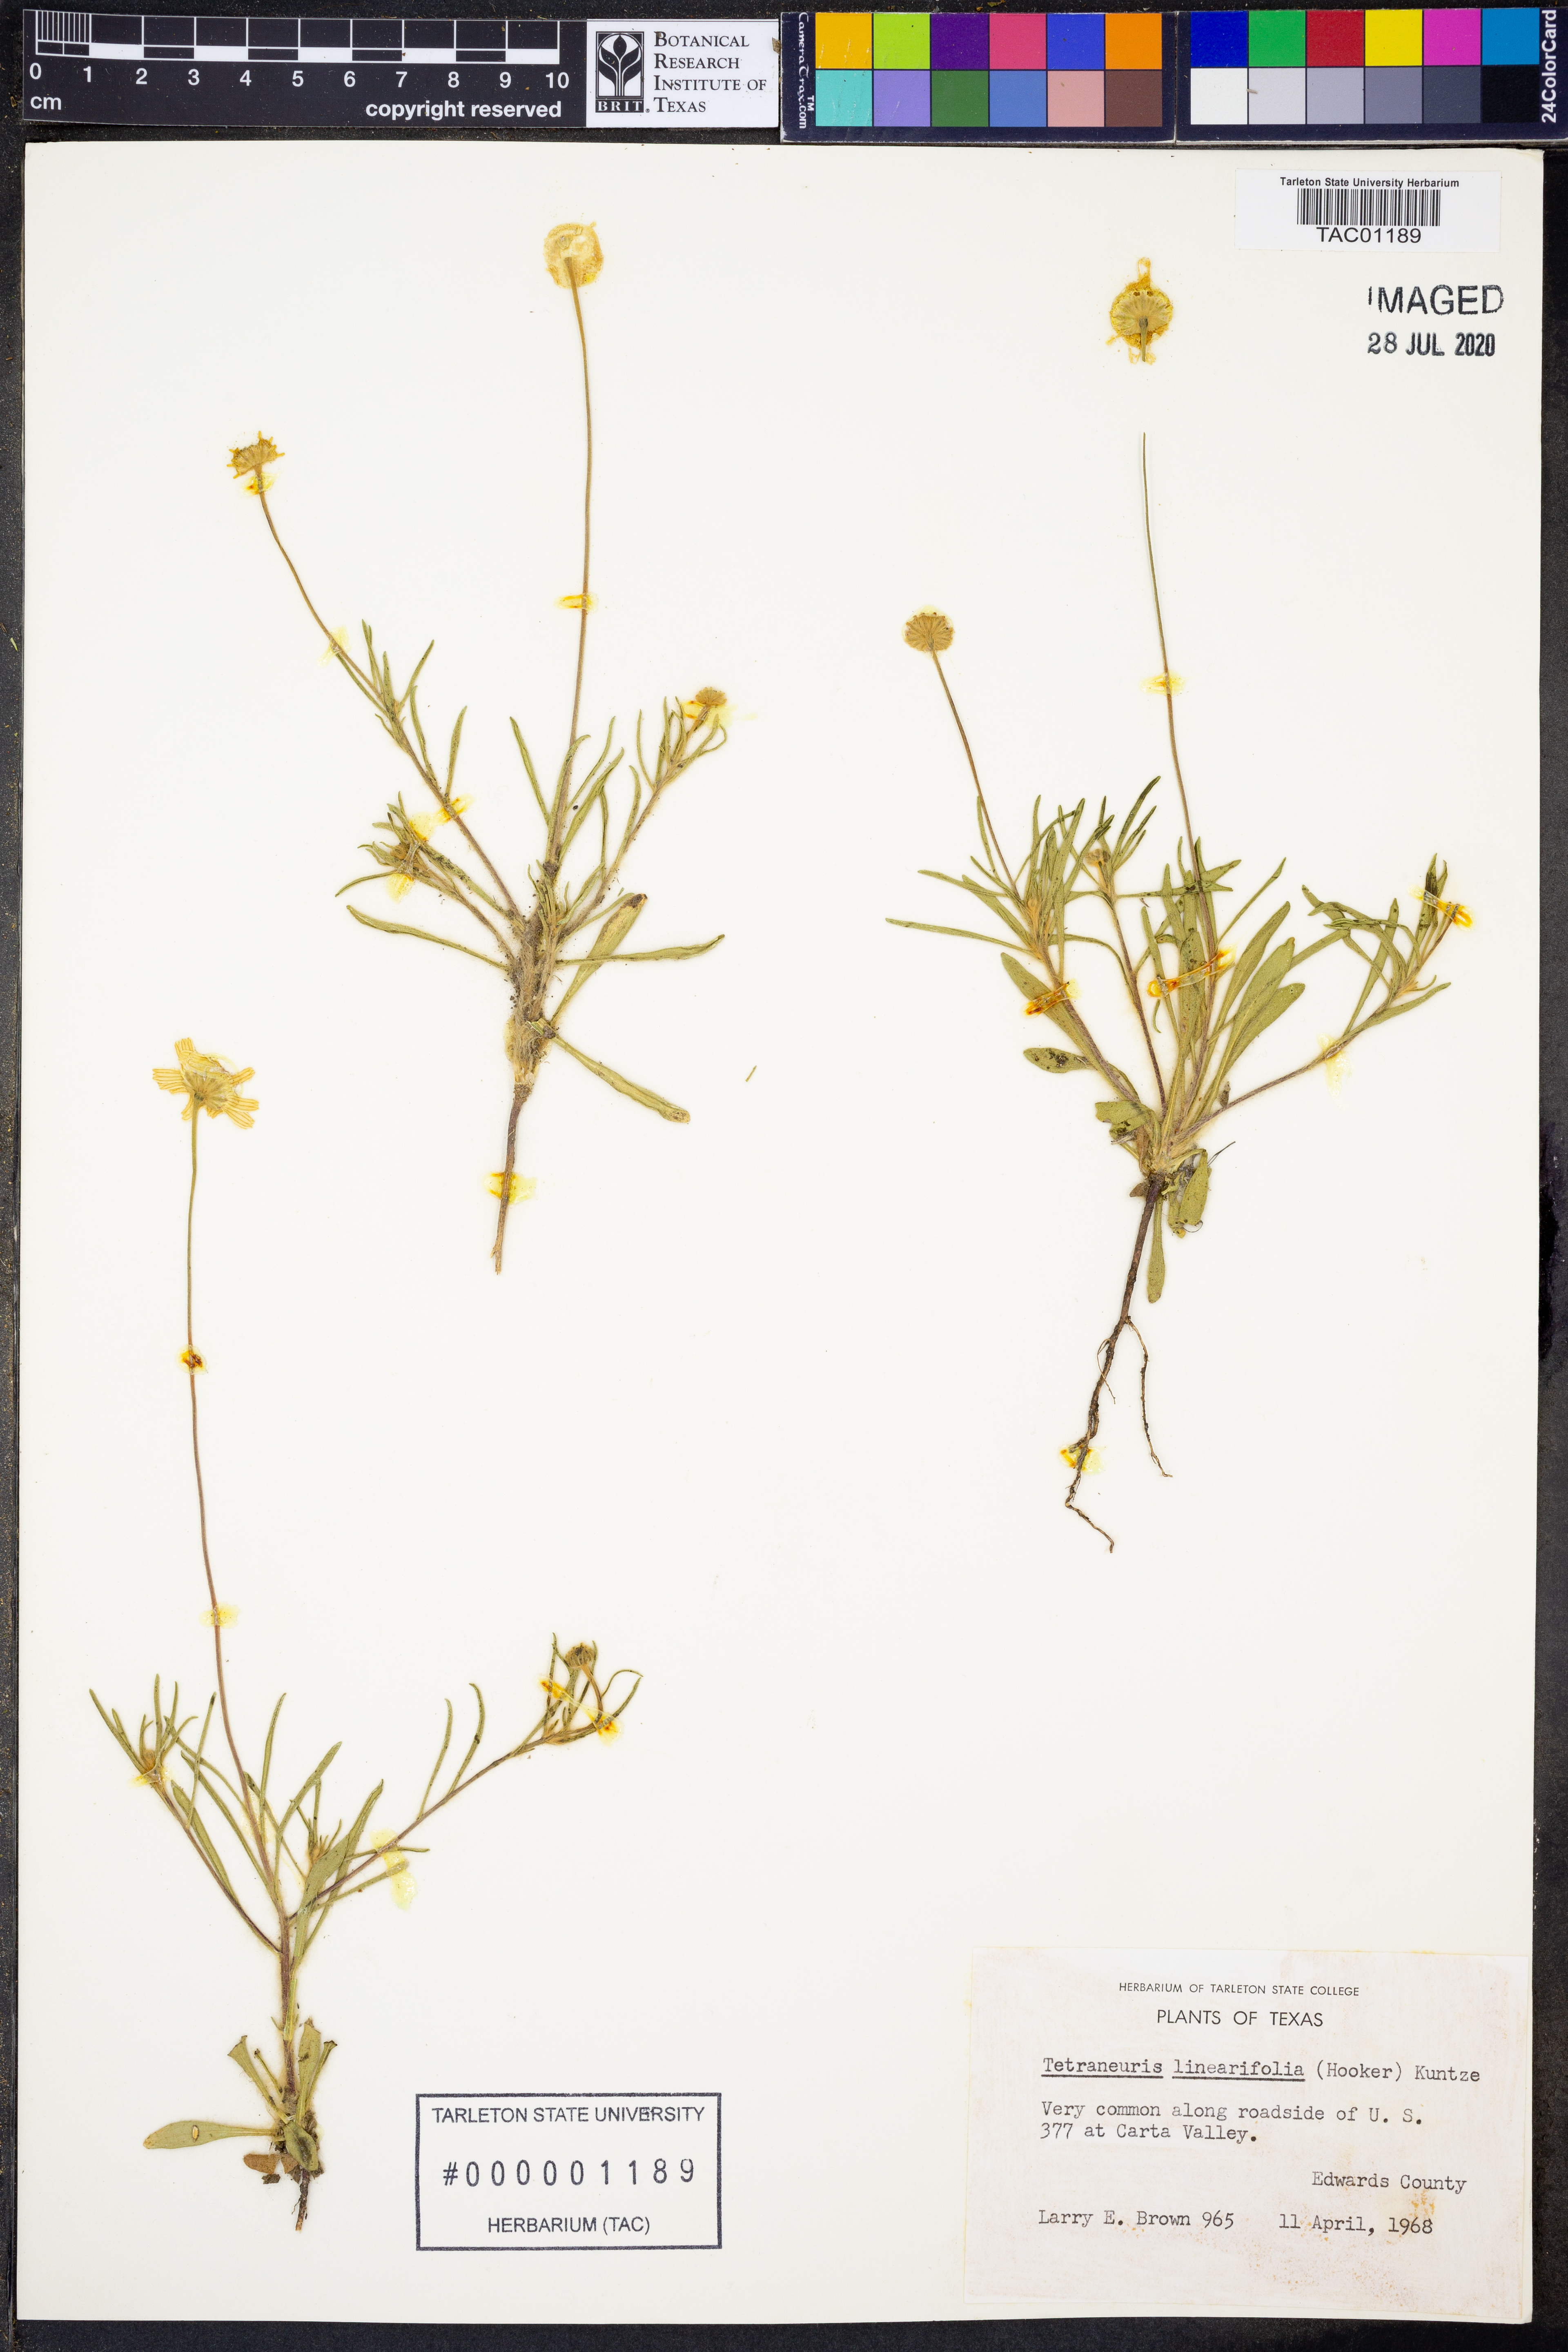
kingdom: Plantae
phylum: Tracheophyta
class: Magnoliopsida
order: Asterales
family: Asteraceae
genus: Tetraneuris
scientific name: Tetraneuris linearifolia
